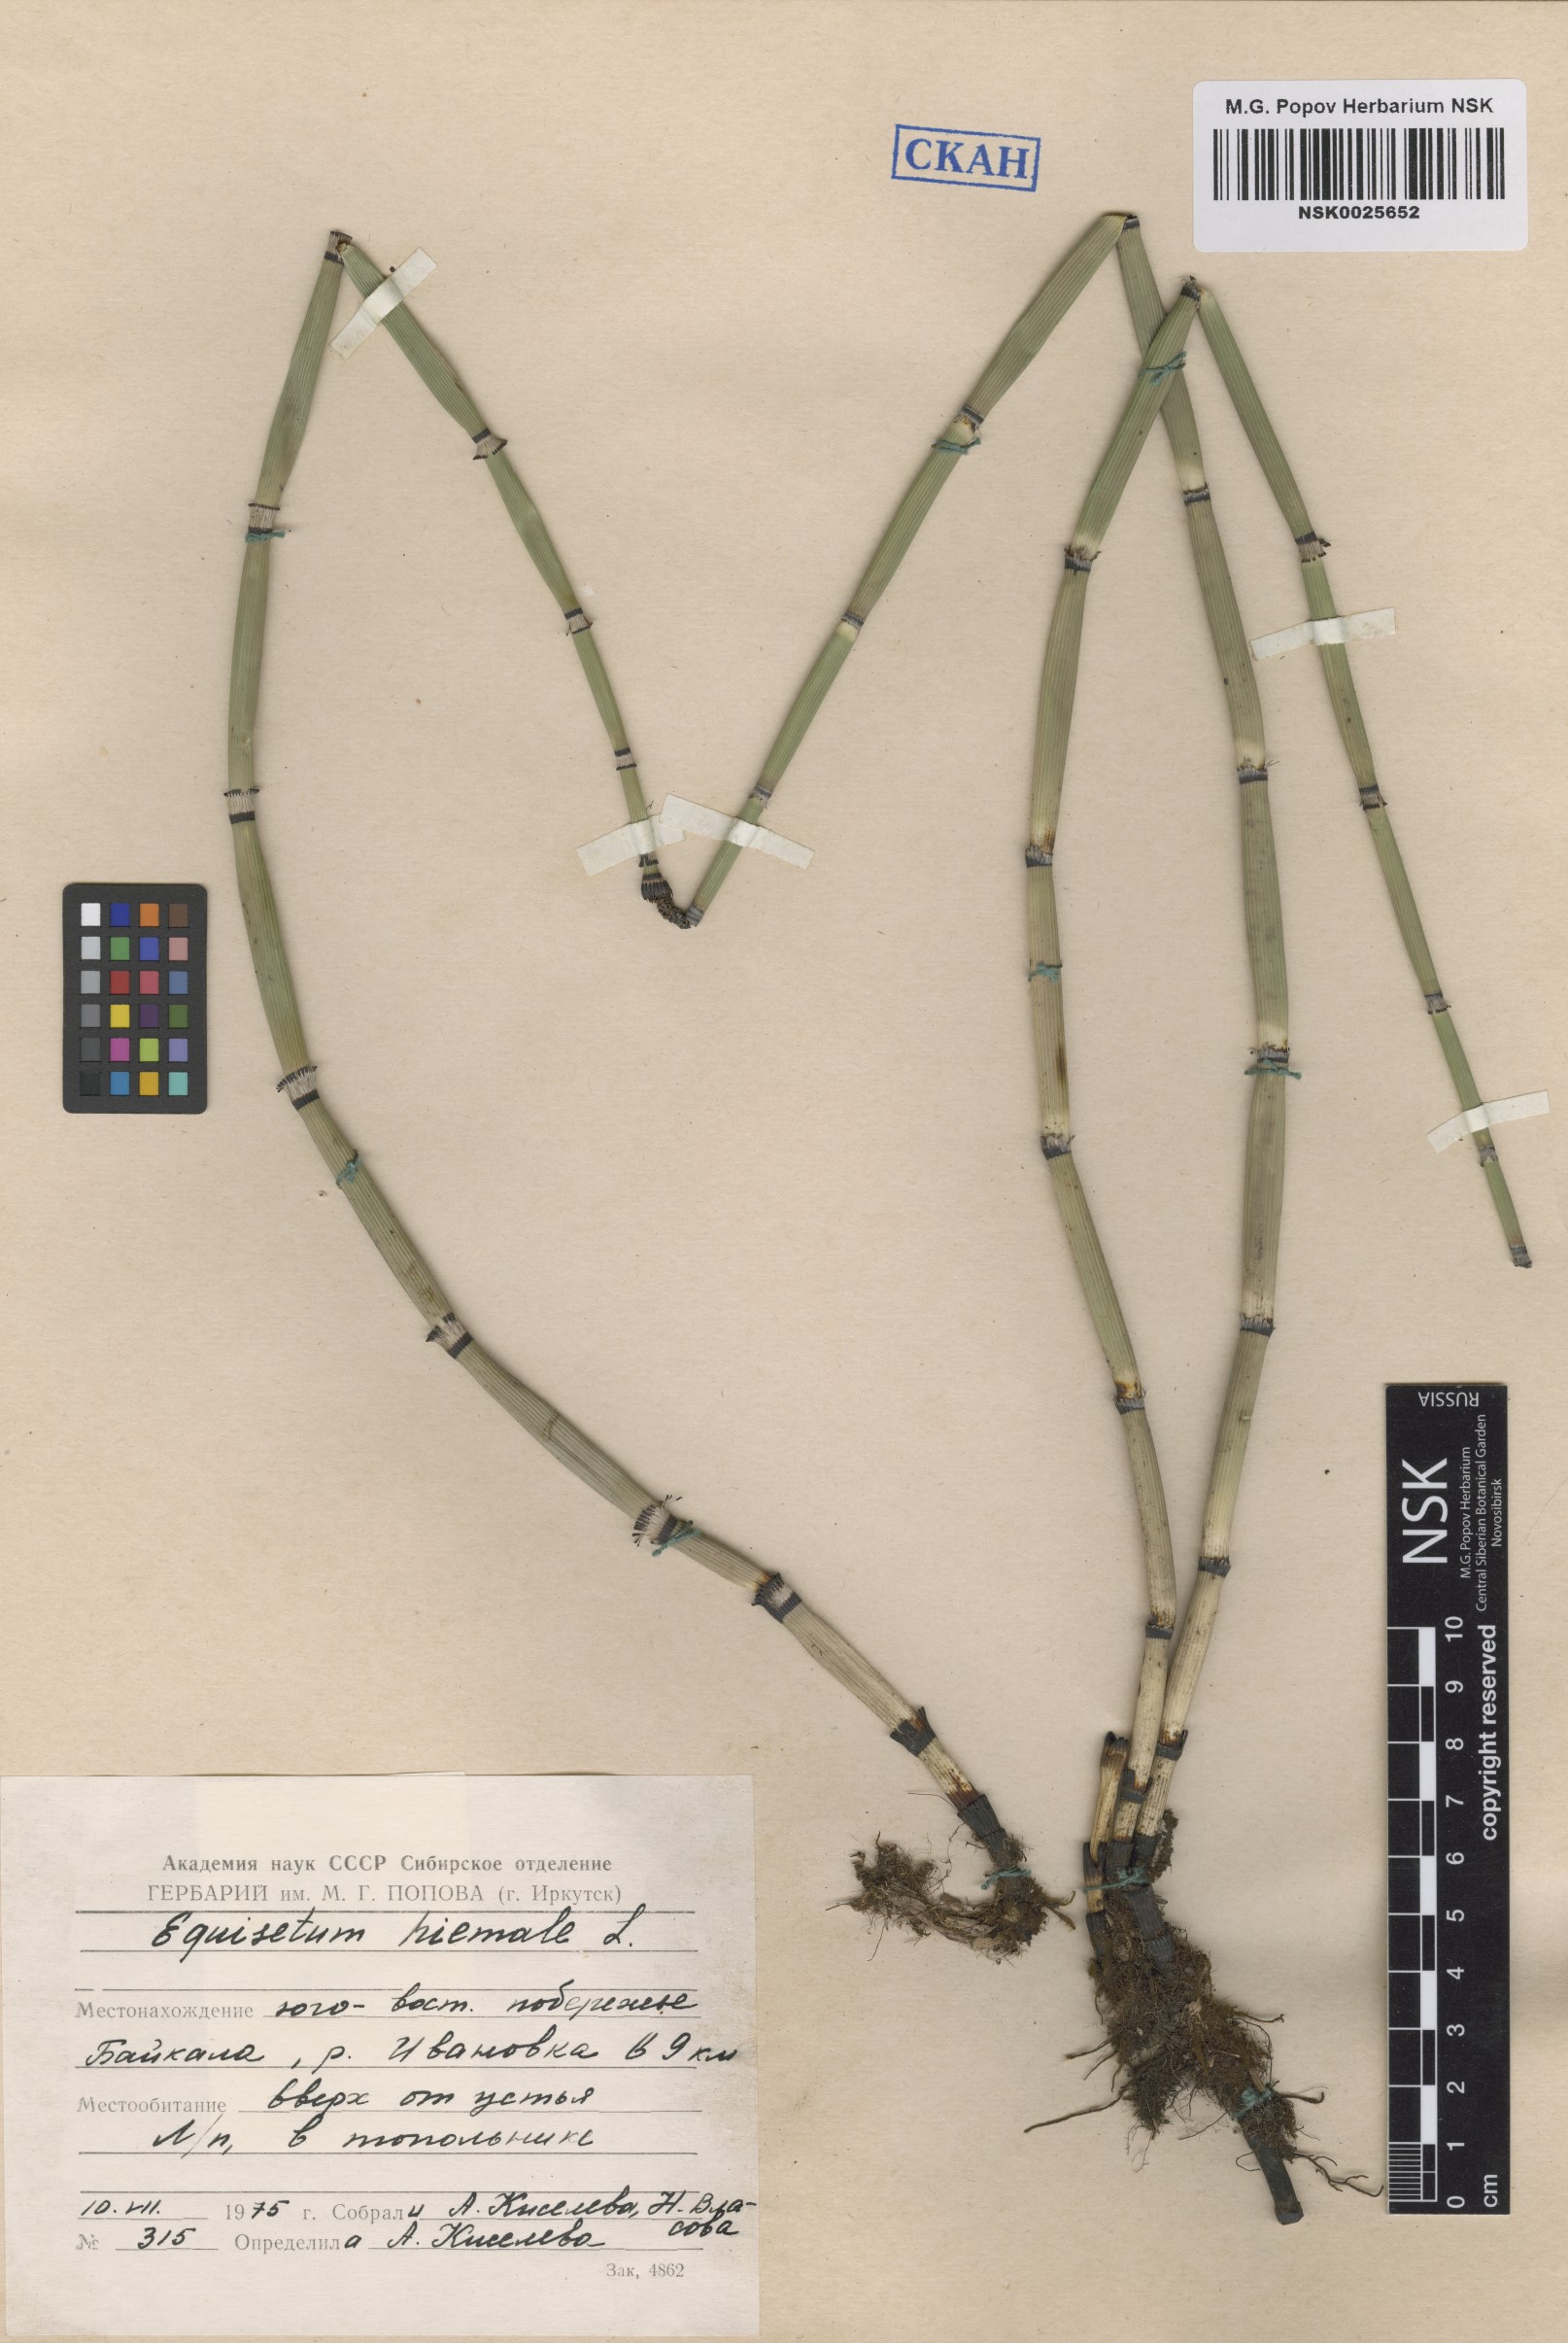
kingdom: Plantae
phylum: Tracheophyta
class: Polypodiopsida
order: Equisetales
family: Equisetaceae
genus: Equisetum
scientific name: Equisetum hyemale
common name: Rough horsetail
